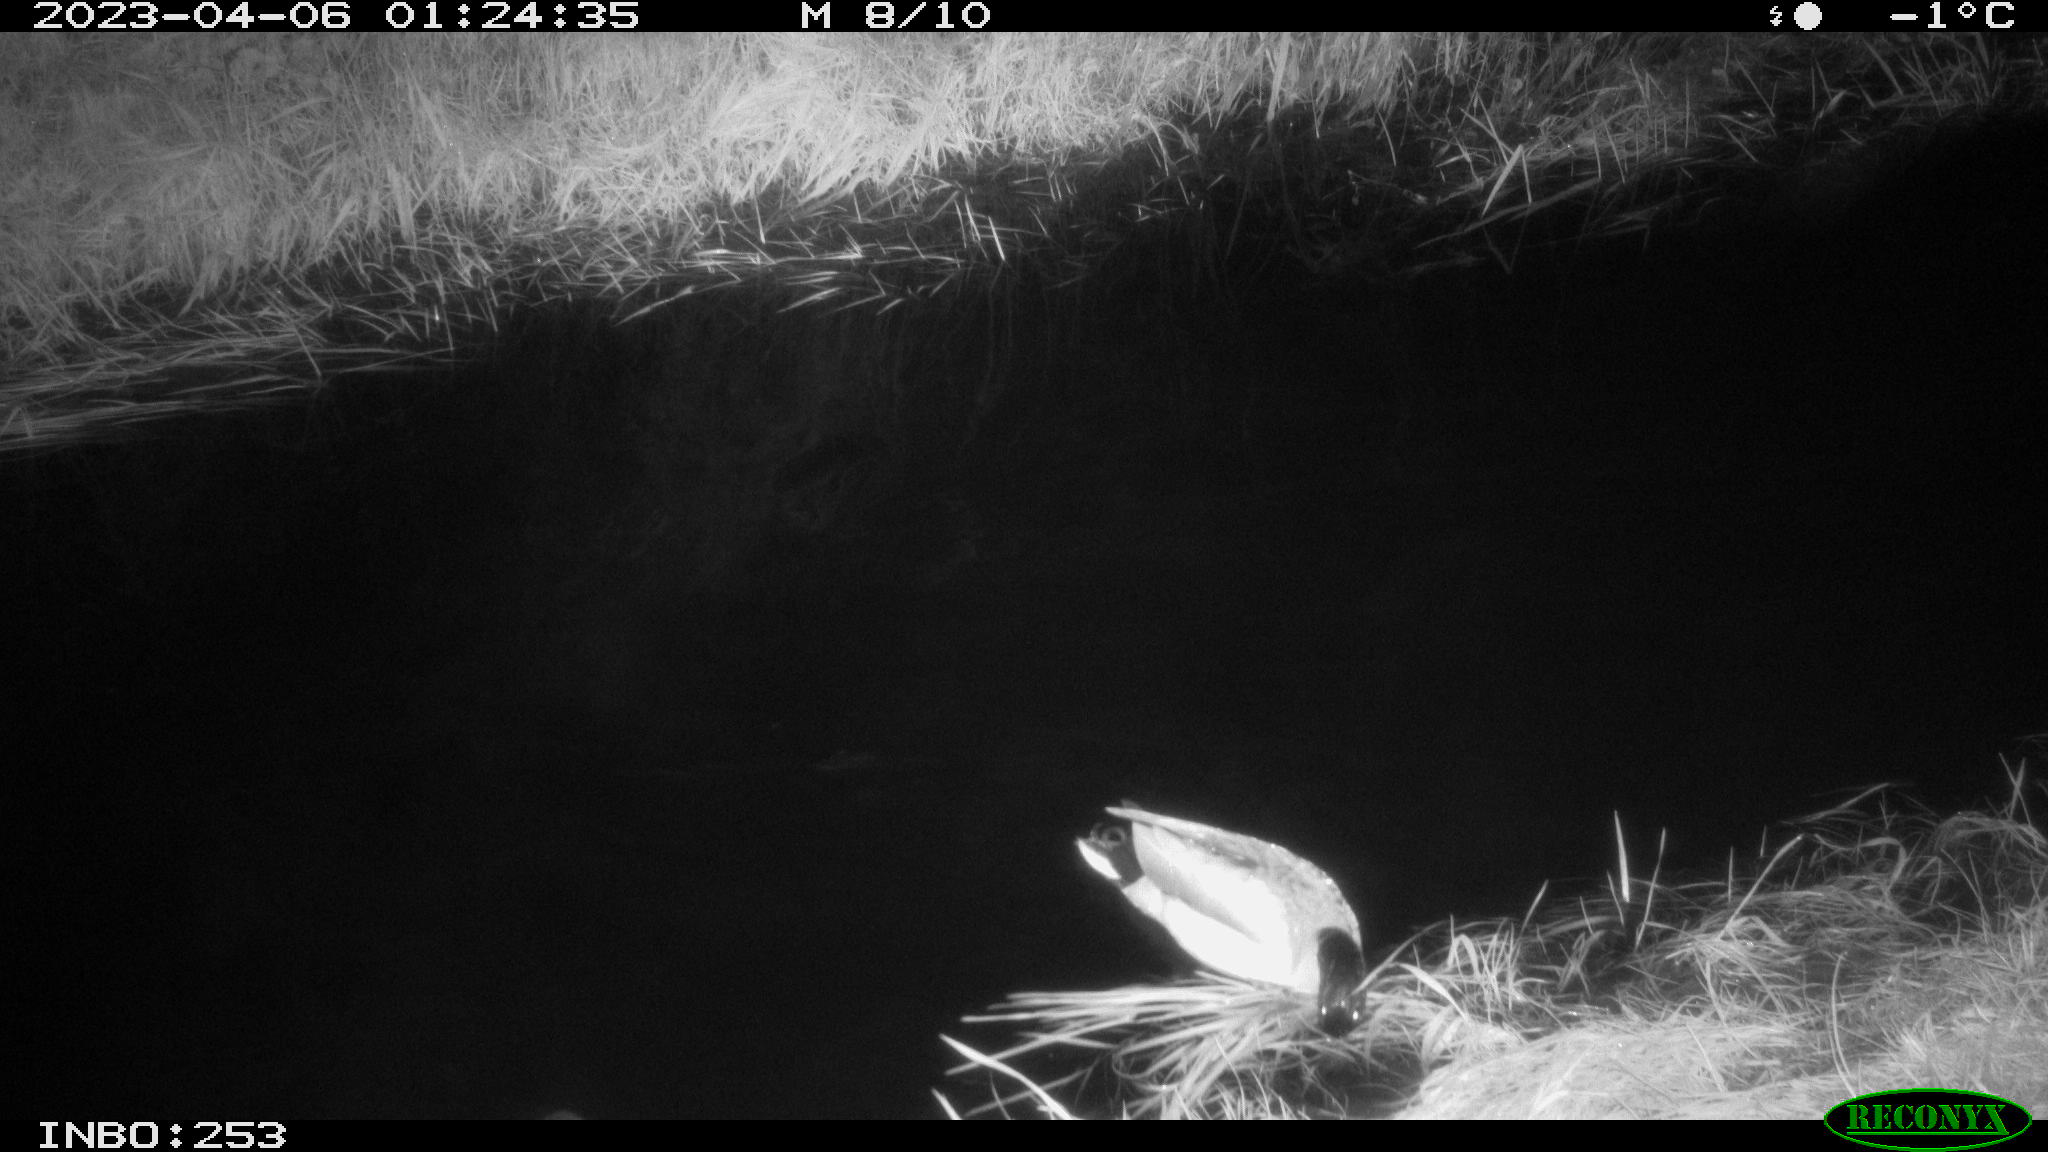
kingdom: Animalia
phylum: Chordata
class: Aves
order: Anseriformes
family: Anatidae
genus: Anas
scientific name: Anas
